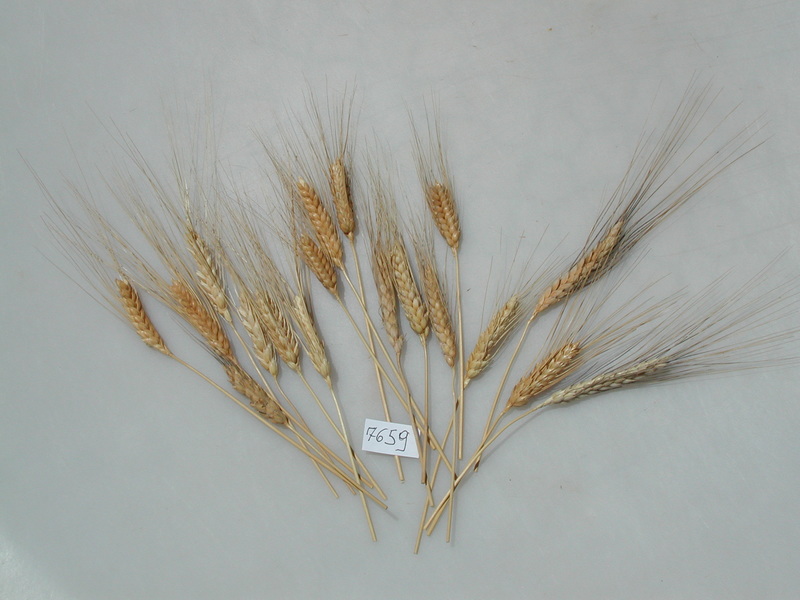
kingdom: Plantae
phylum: Tracheophyta
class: Liliopsida
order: Poales
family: Poaceae
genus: Triticum
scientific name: Triticum aestivum
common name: Wheat
